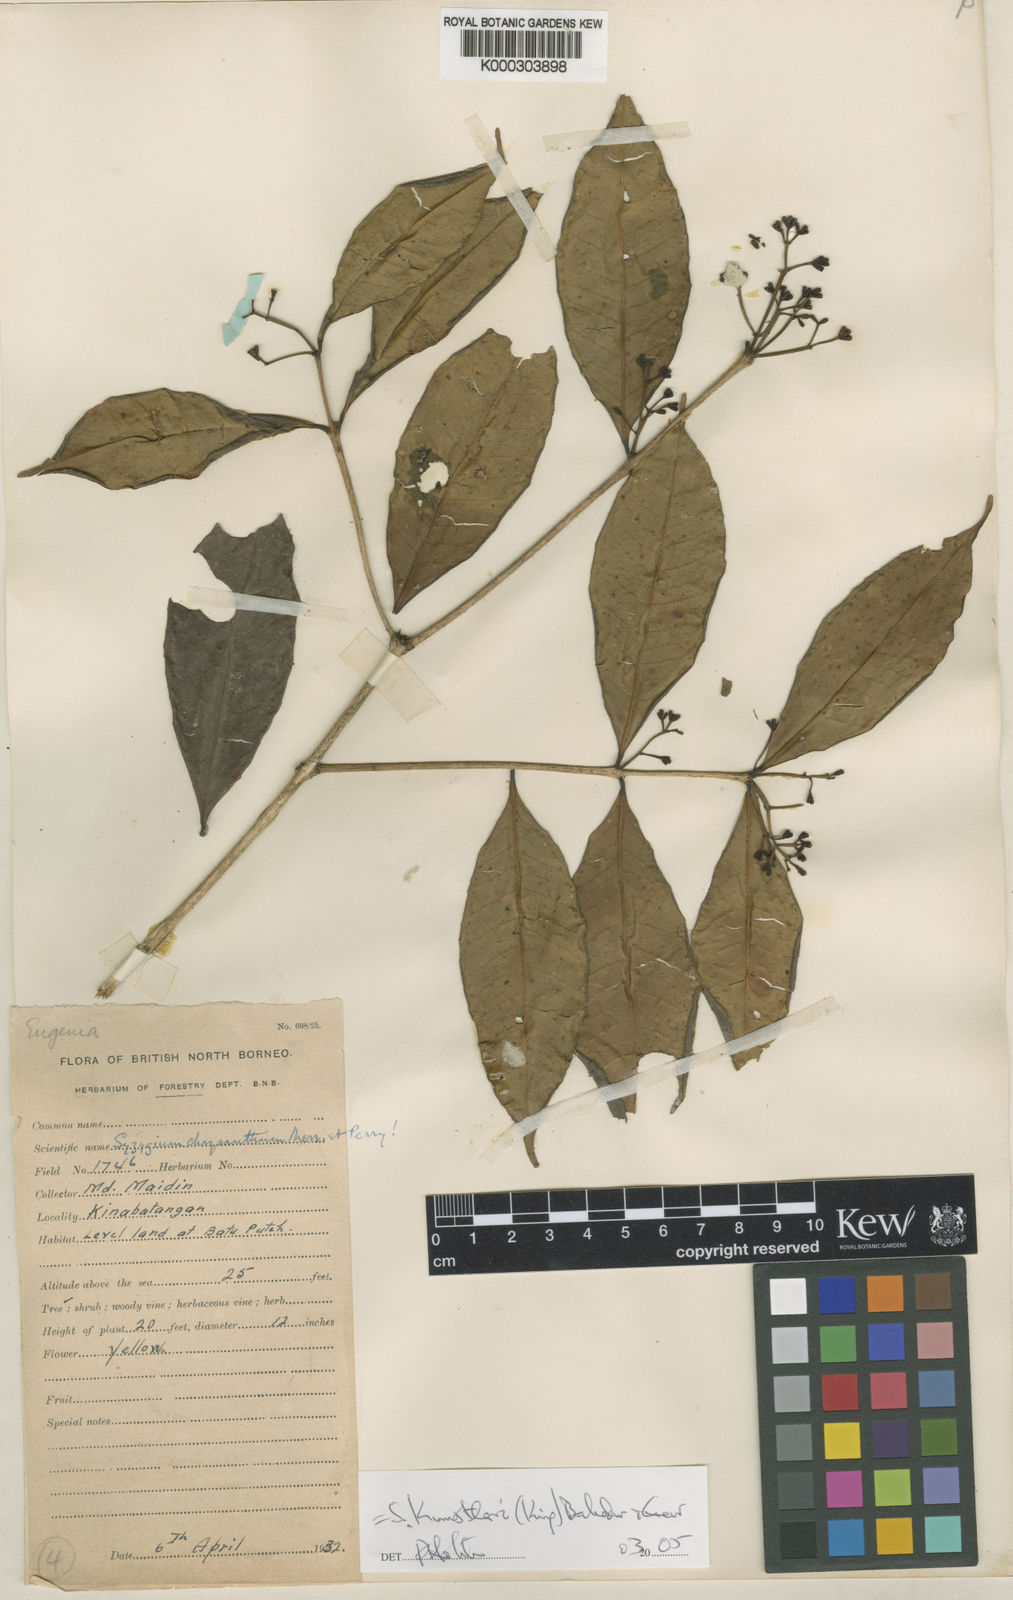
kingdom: Plantae
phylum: Tracheophyta
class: Magnoliopsida
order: Myrtales
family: Myrtaceae
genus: Syzygium
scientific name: Syzygium kunstleri
